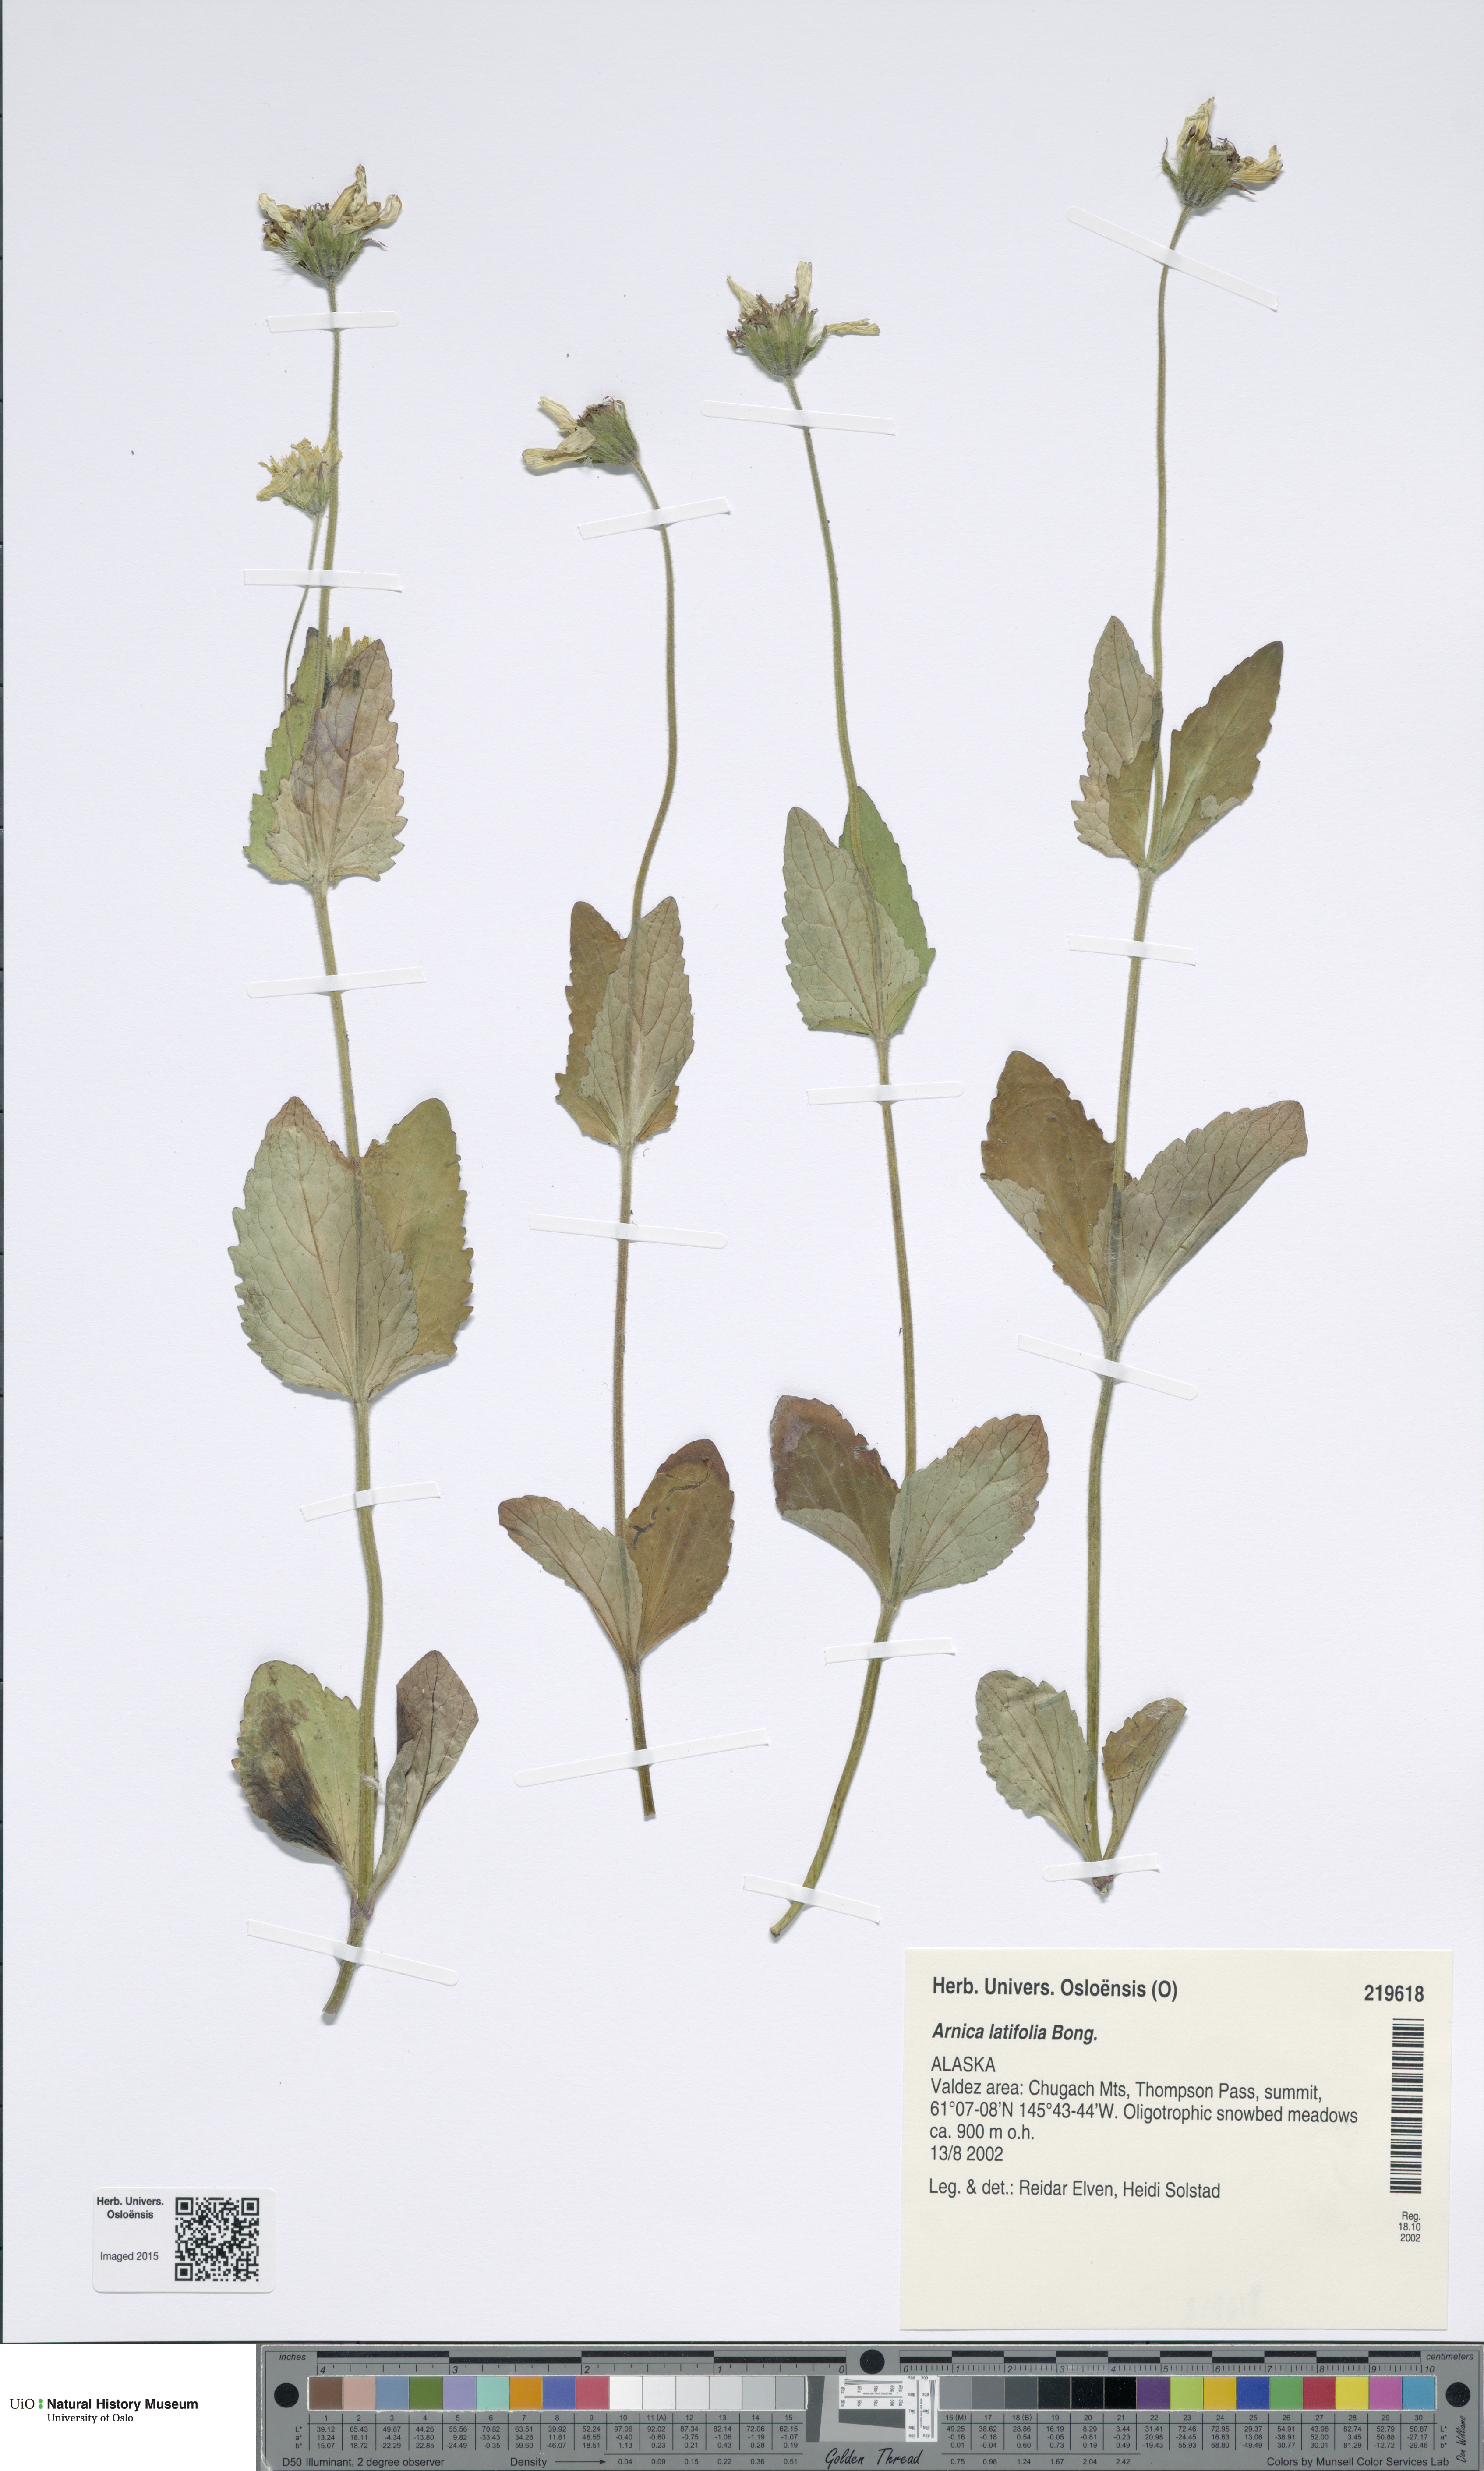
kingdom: Plantae
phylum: Tracheophyta
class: Magnoliopsida
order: Asterales
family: Asteraceae
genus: Arnica
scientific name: Arnica latifolia
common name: Arnica
